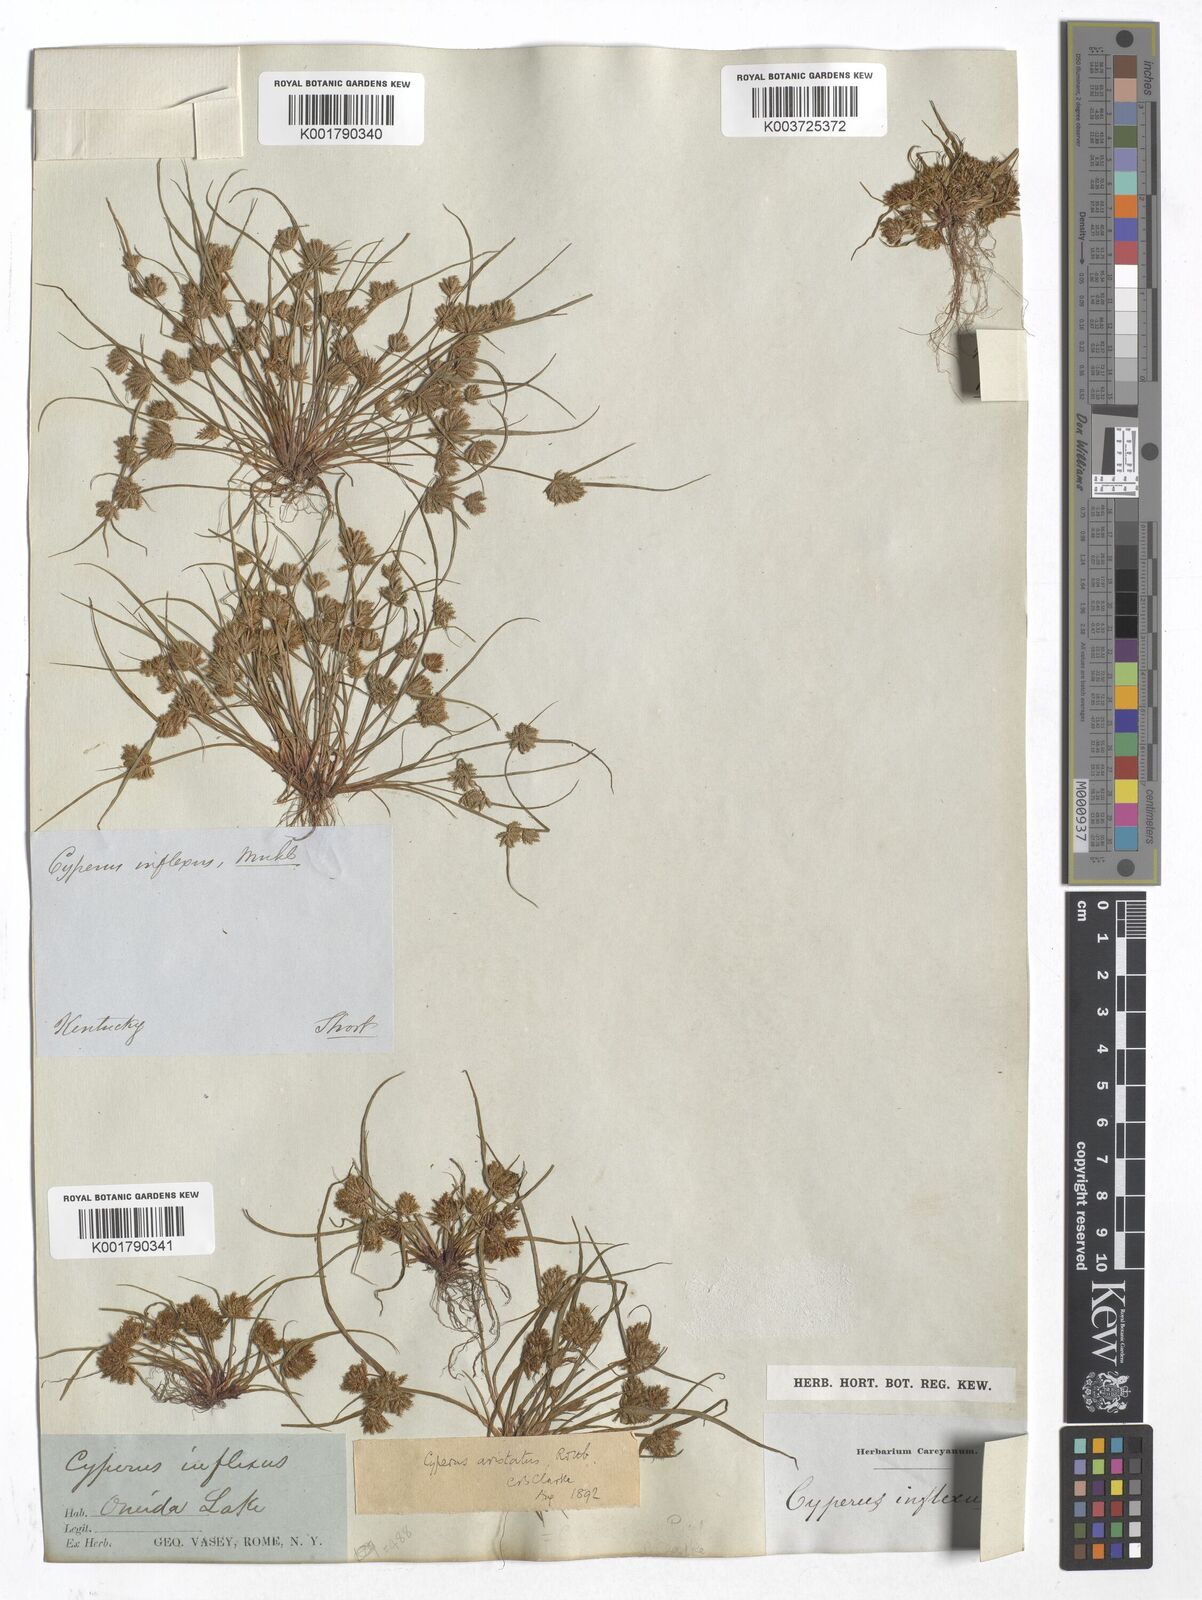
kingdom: Plantae
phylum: Tracheophyta
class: Liliopsida
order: Poales
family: Cyperaceae
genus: Cyperus
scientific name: Cyperus squarrosus
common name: Awned cyperus
